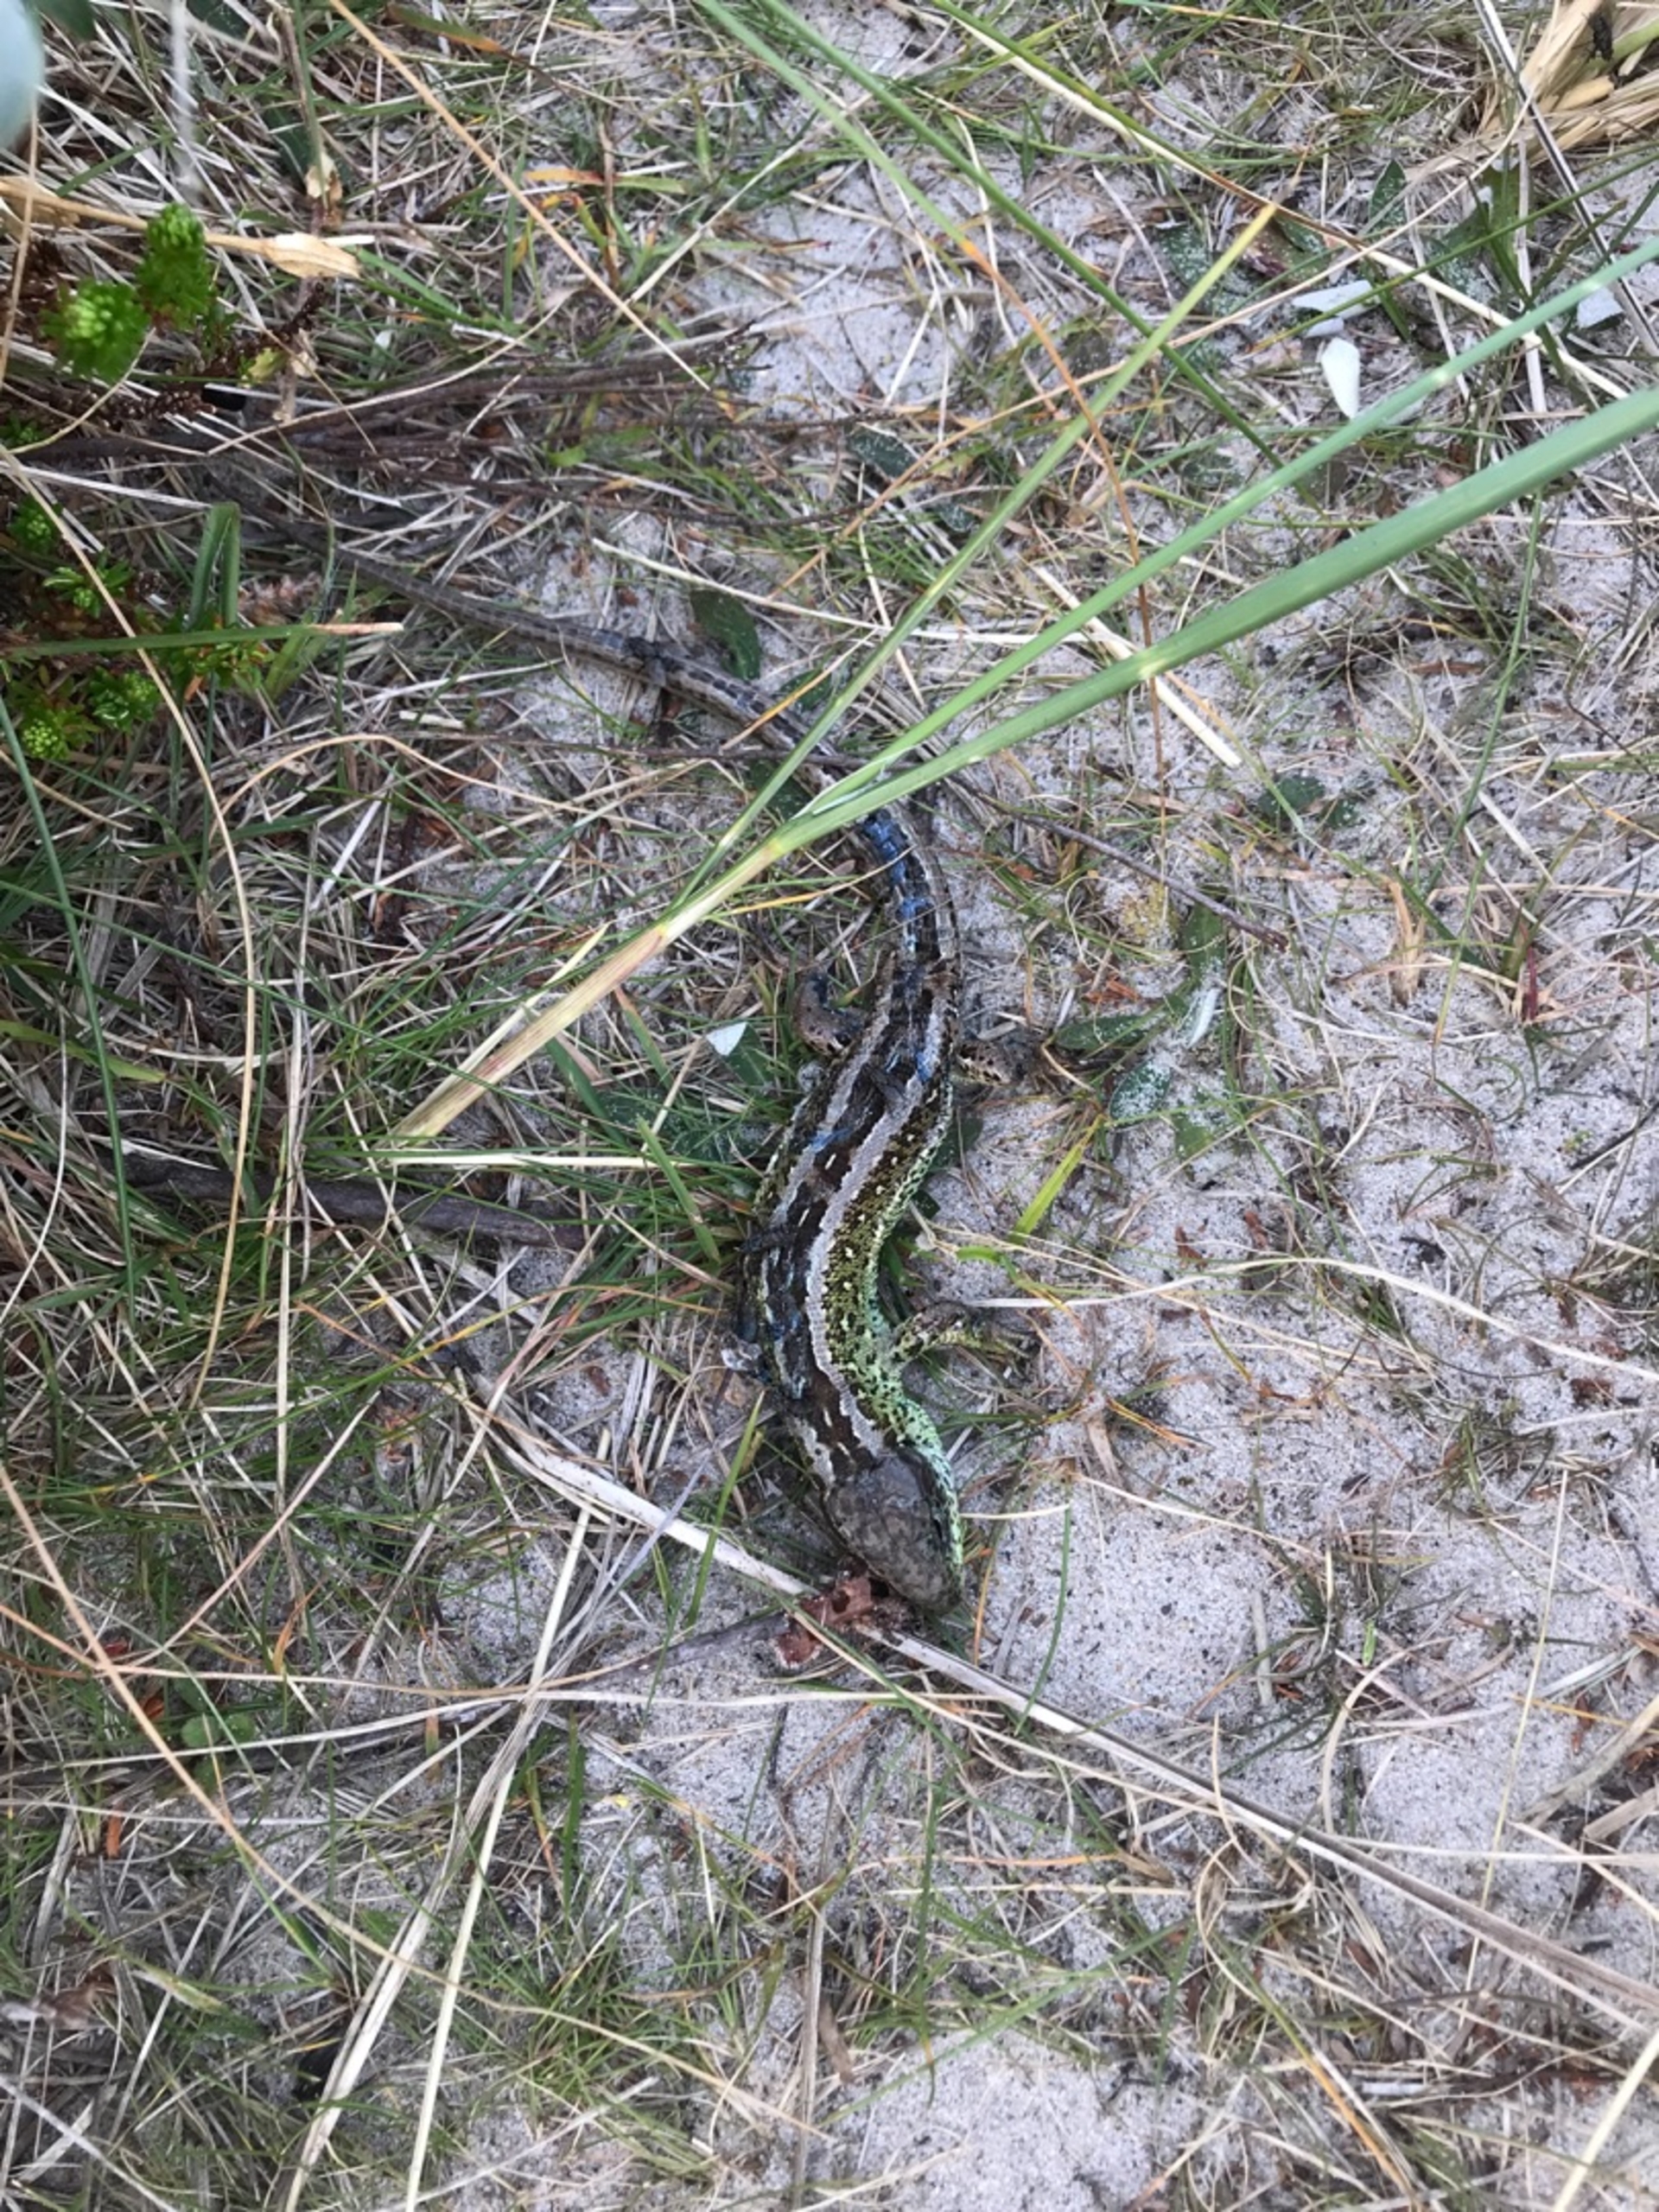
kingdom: Animalia
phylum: Chordata
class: Squamata
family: Lacertidae
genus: Lacerta
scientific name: Lacerta agilis
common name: Markfirben
